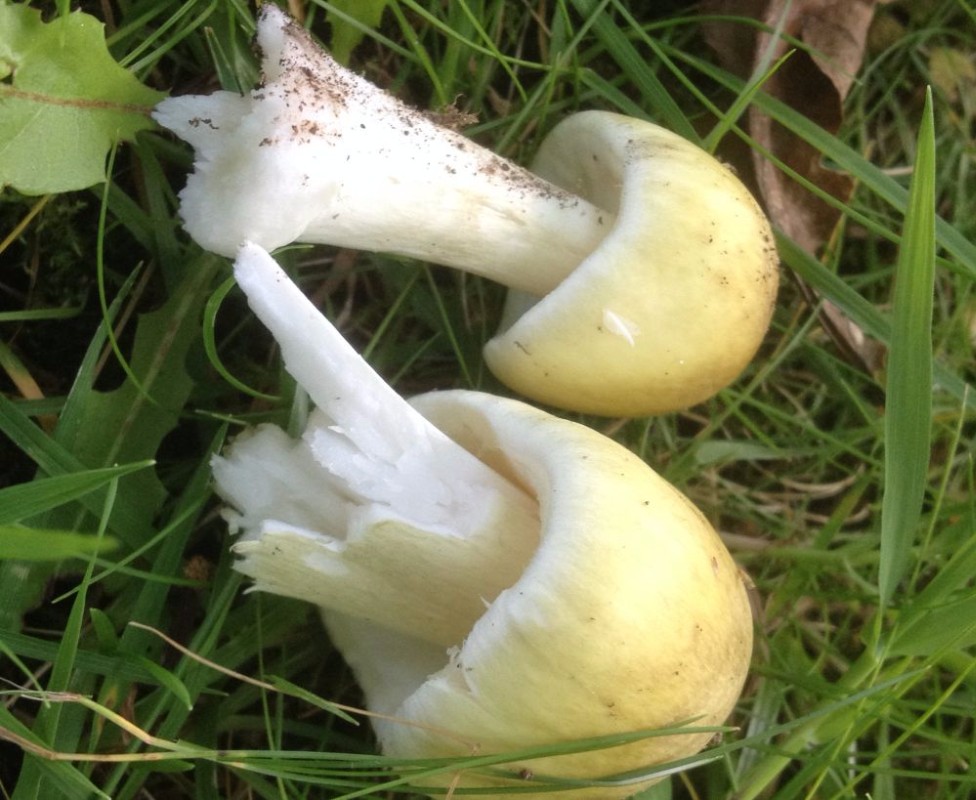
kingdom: Fungi
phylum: Basidiomycota
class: Agaricomycetes
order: Agaricales
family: Amanitaceae
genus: Amanita
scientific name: Amanita phalloides
